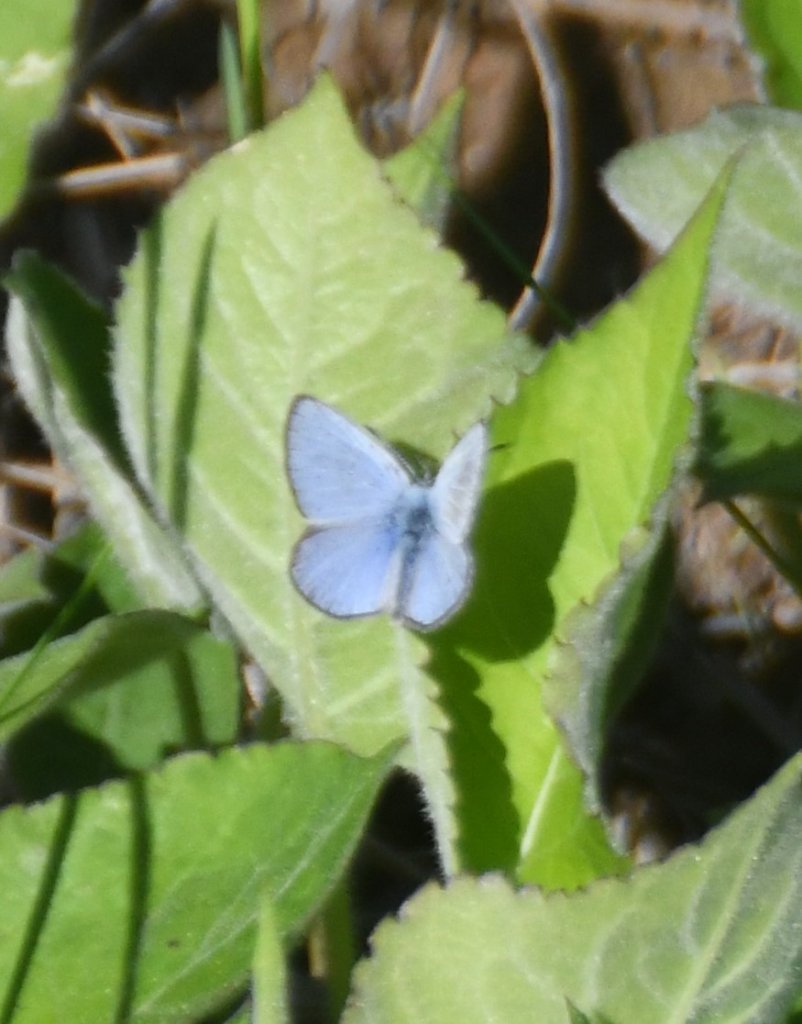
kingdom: Animalia
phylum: Arthropoda
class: Insecta
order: Lepidoptera
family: Lycaenidae
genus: Glaucopsyche
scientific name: Glaucopsyche lygdamus
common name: Silvery Blue
